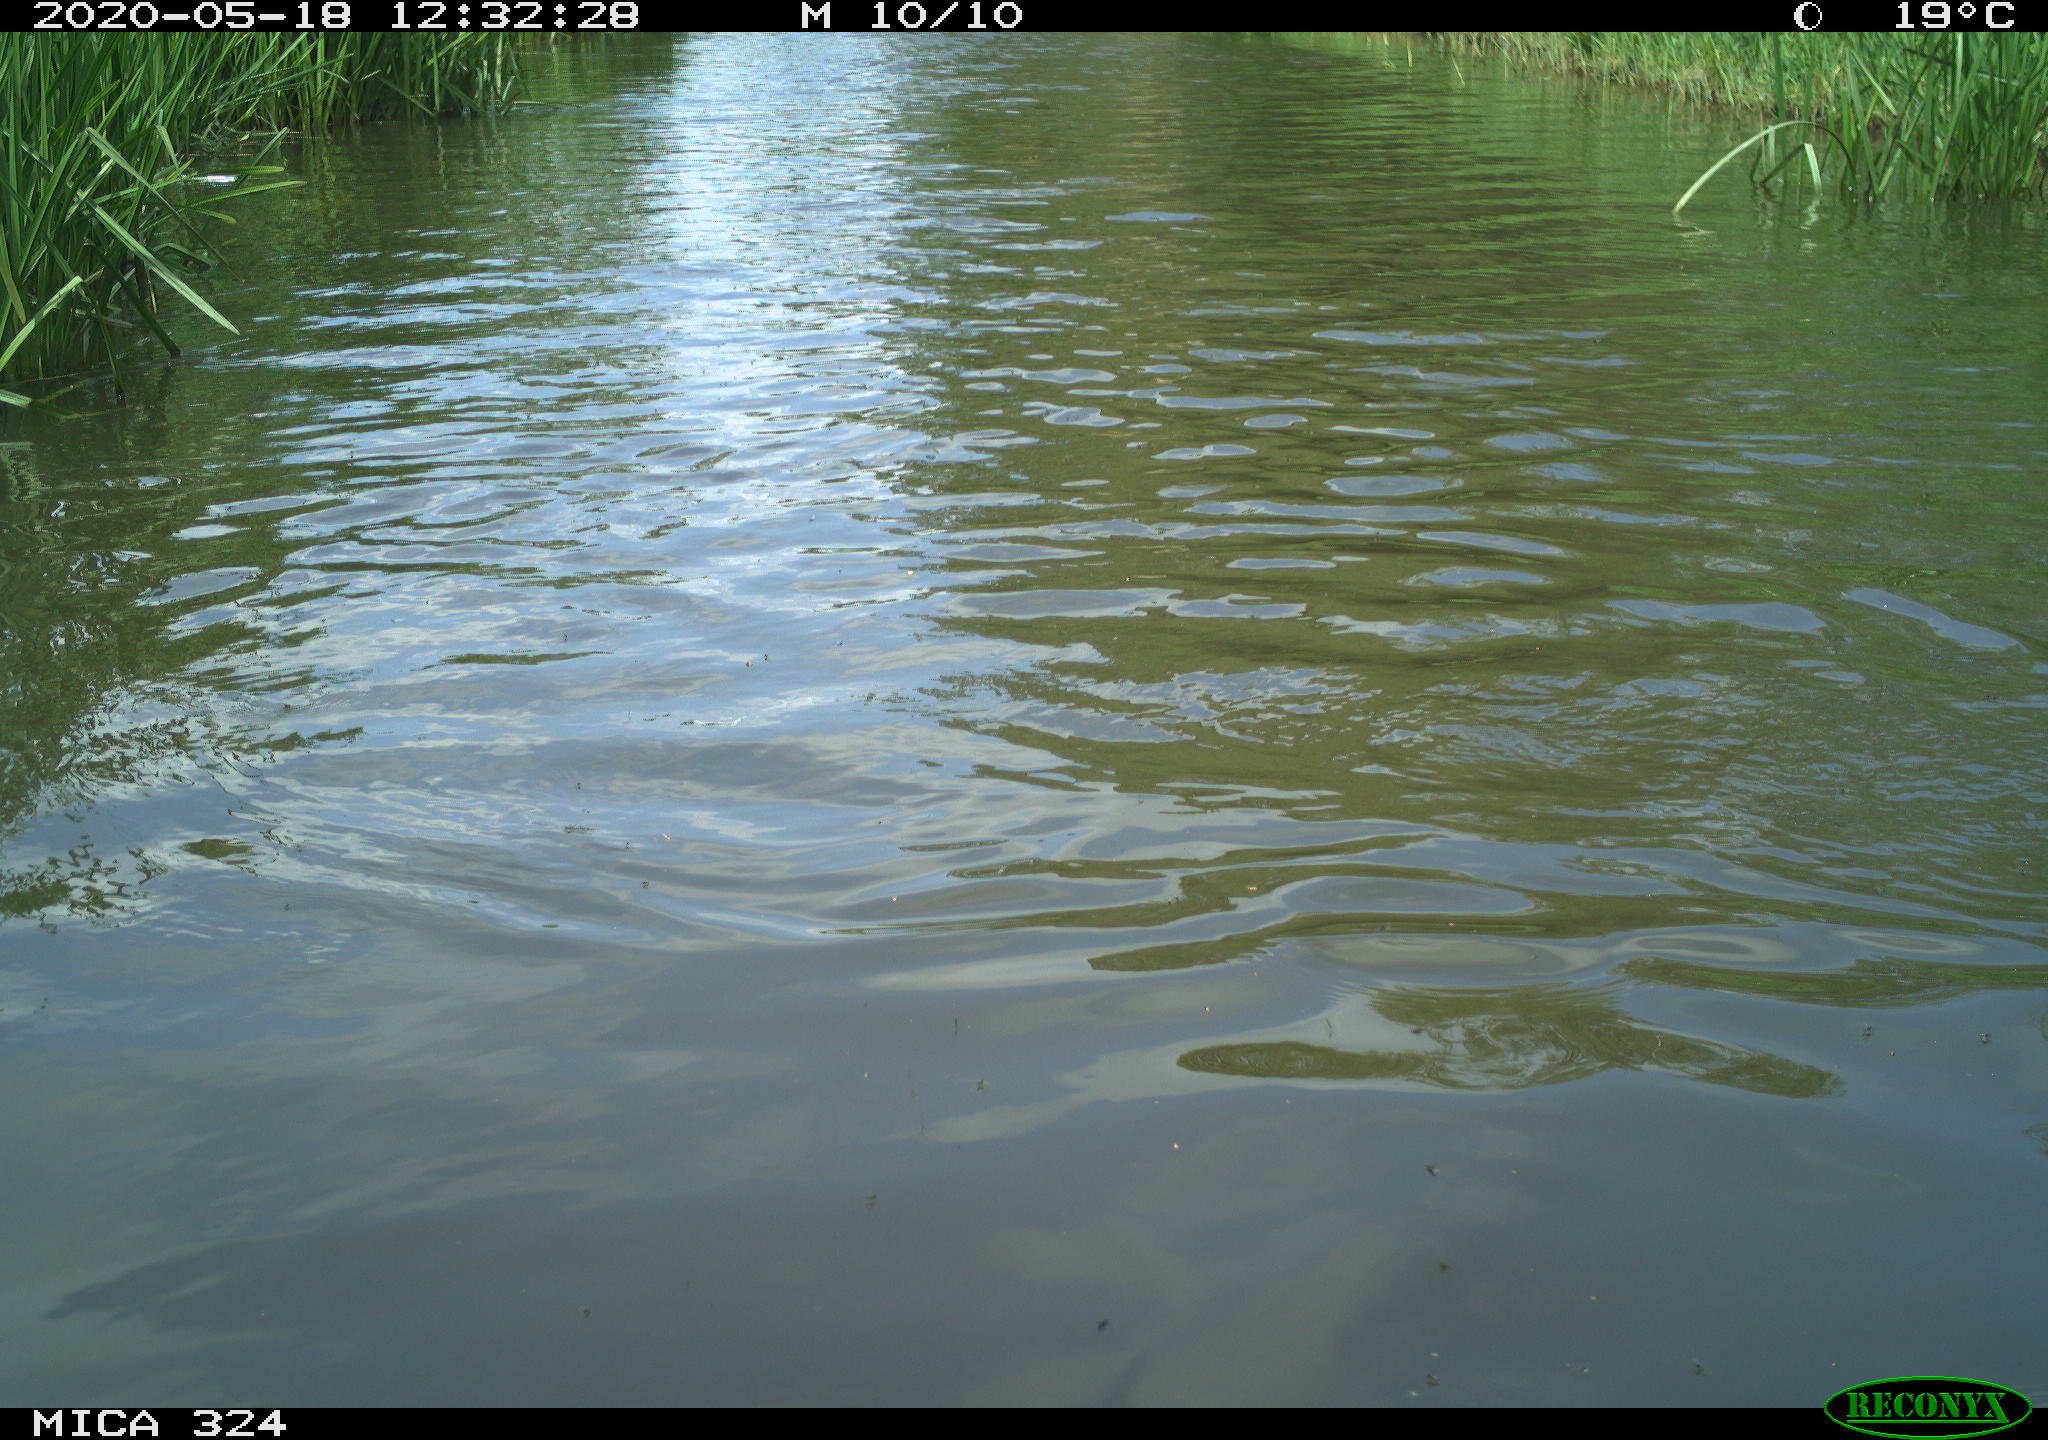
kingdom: Animalia
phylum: Chordata
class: Aves
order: Gruiformes
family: Rallidae
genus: Fulica
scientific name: Fulica atra
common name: Eurasian coot
